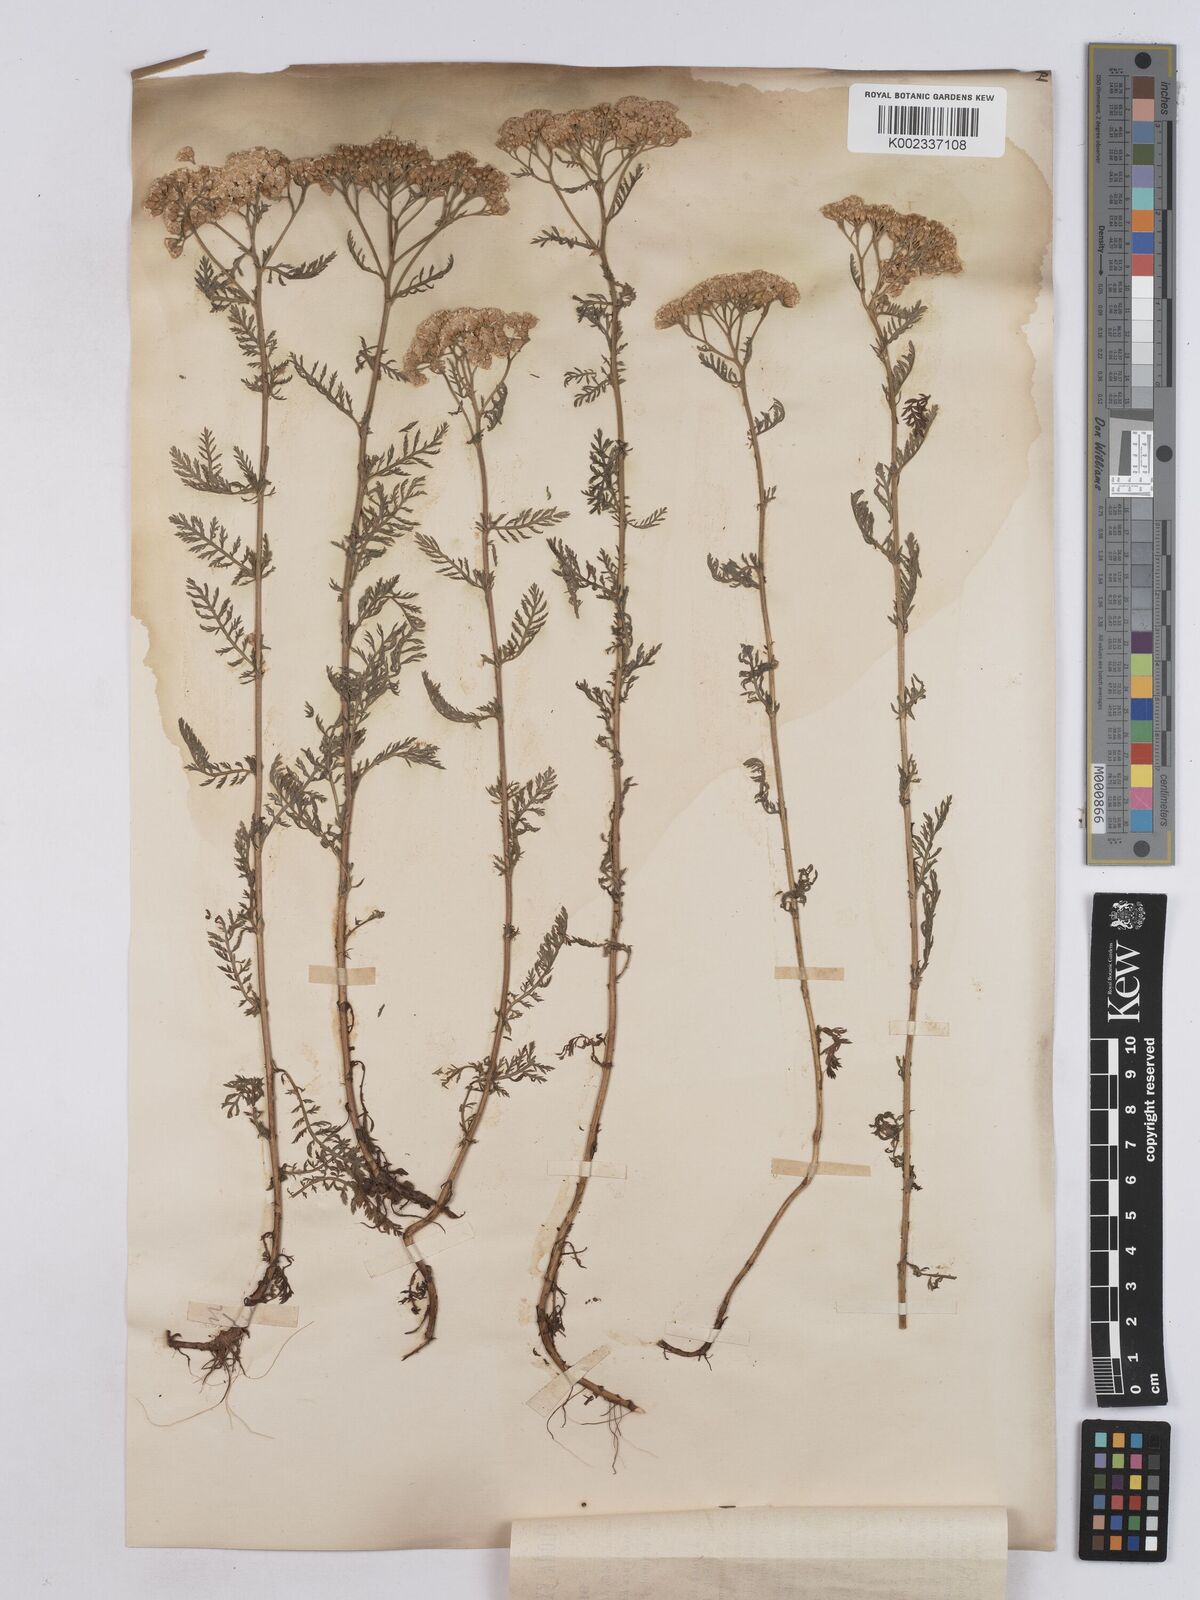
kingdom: Plantae
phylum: Tracheophyta
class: Magnoliopsida
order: Asterales
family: Asteraceae
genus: Achillea
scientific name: Achillea virescens
